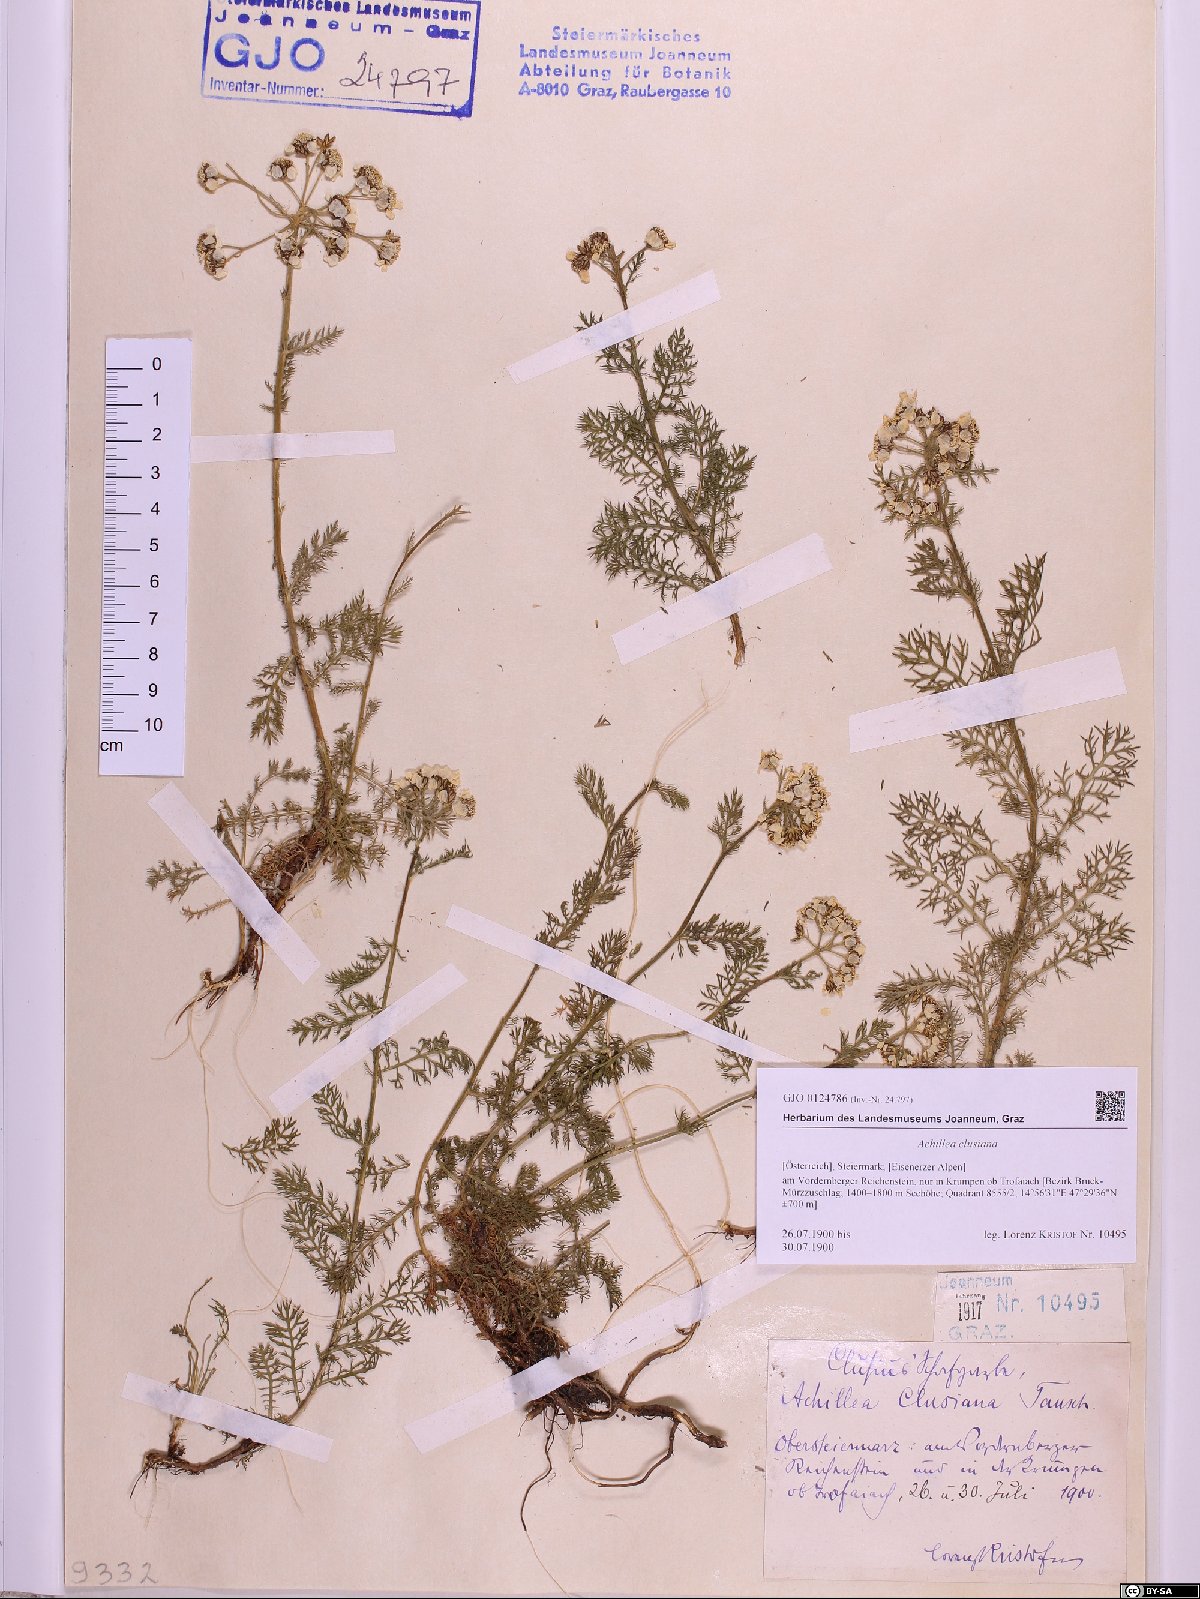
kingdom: Plantae
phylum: Tracheophyta
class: Magnoliopsida
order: Asterales
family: Asteraceae
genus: Achillea
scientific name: Achillea clusiana
